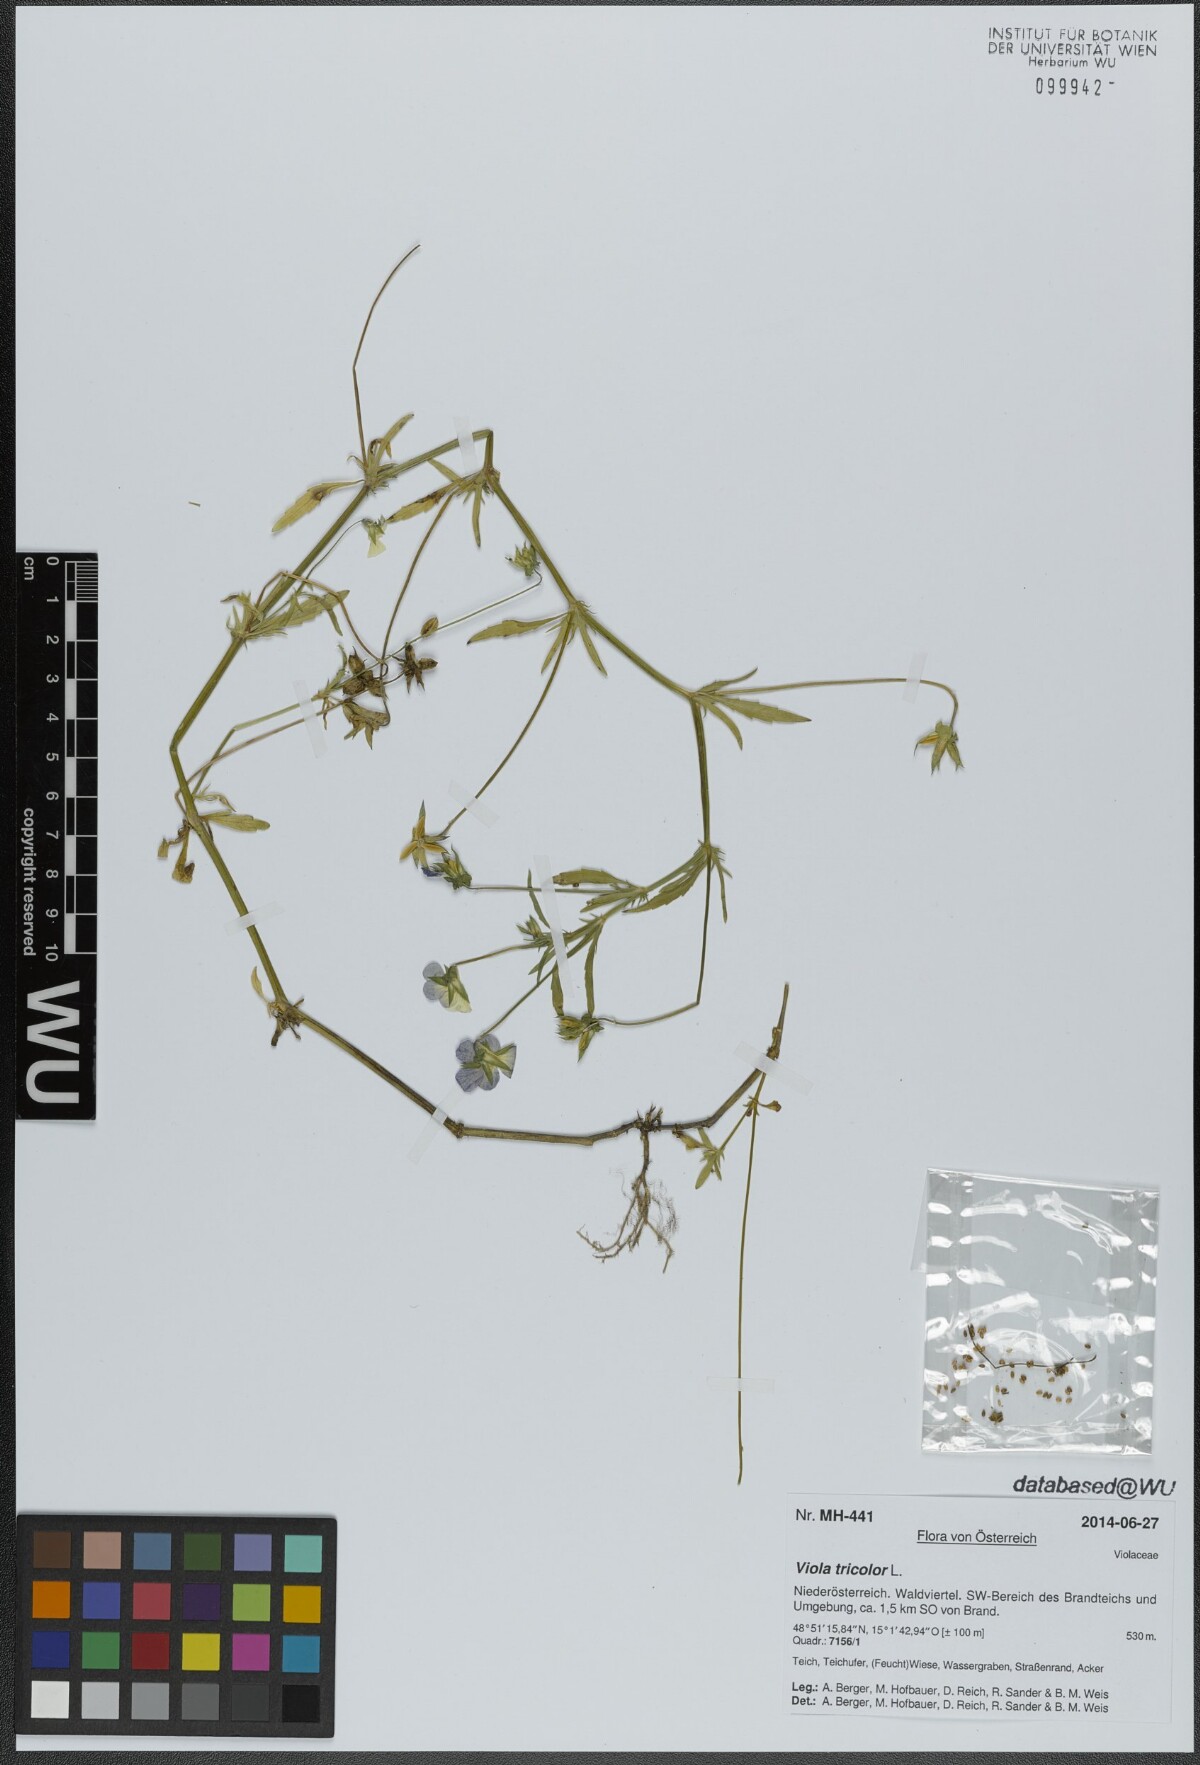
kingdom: Plantae
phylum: Tracheophyta
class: Magnoliopsida
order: Malpighiales
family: Violaceae
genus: Viola
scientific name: Viola tricolor
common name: Pansy
